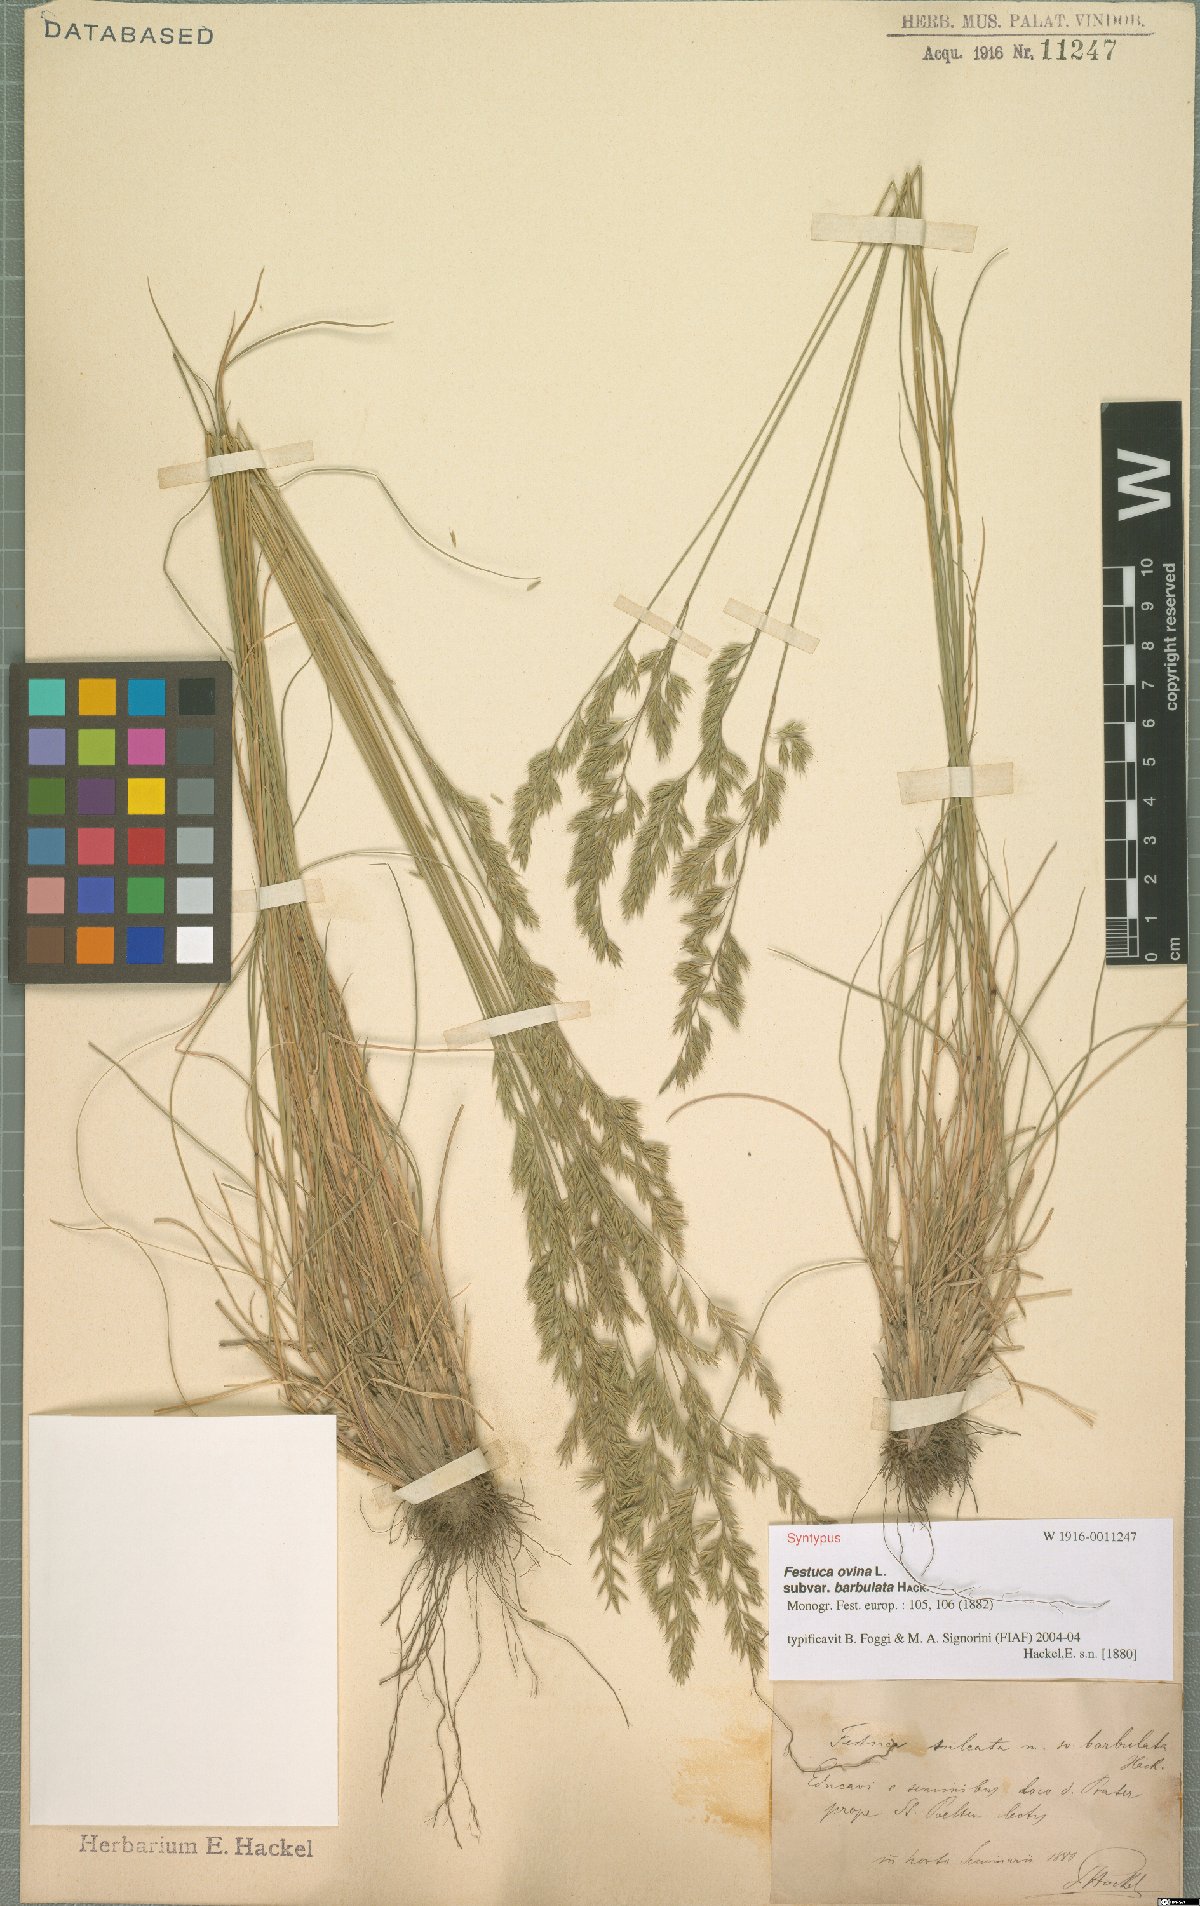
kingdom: Plantae
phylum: Tracheophyta
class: Liliopsida
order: Poales
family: Poaceae
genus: Festuca
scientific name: Festuca ovina
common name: Sheep fescue
